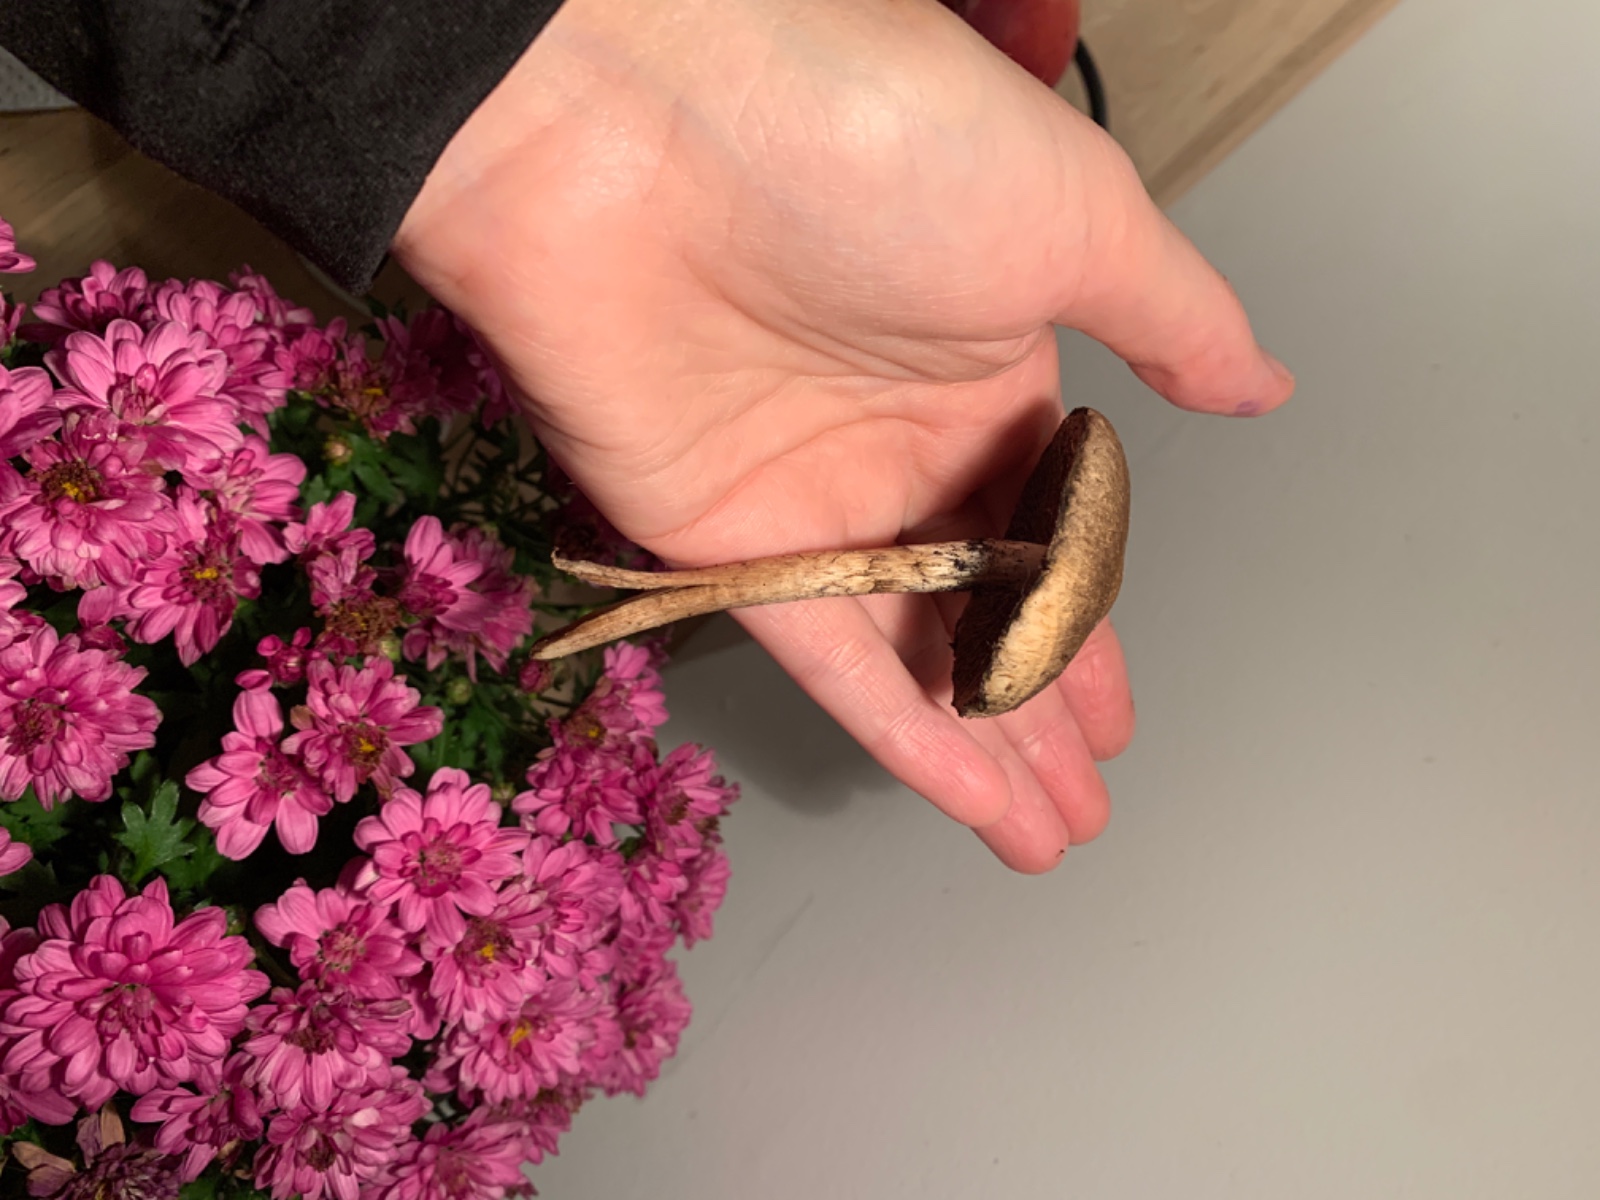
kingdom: Fungi
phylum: Basidiomycota
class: Agaricomycetes
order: Agaricales
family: Psathyrellaceae
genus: Lacrymaria
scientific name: Lacrymaria lacrymabunda
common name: grædende mørkhat
